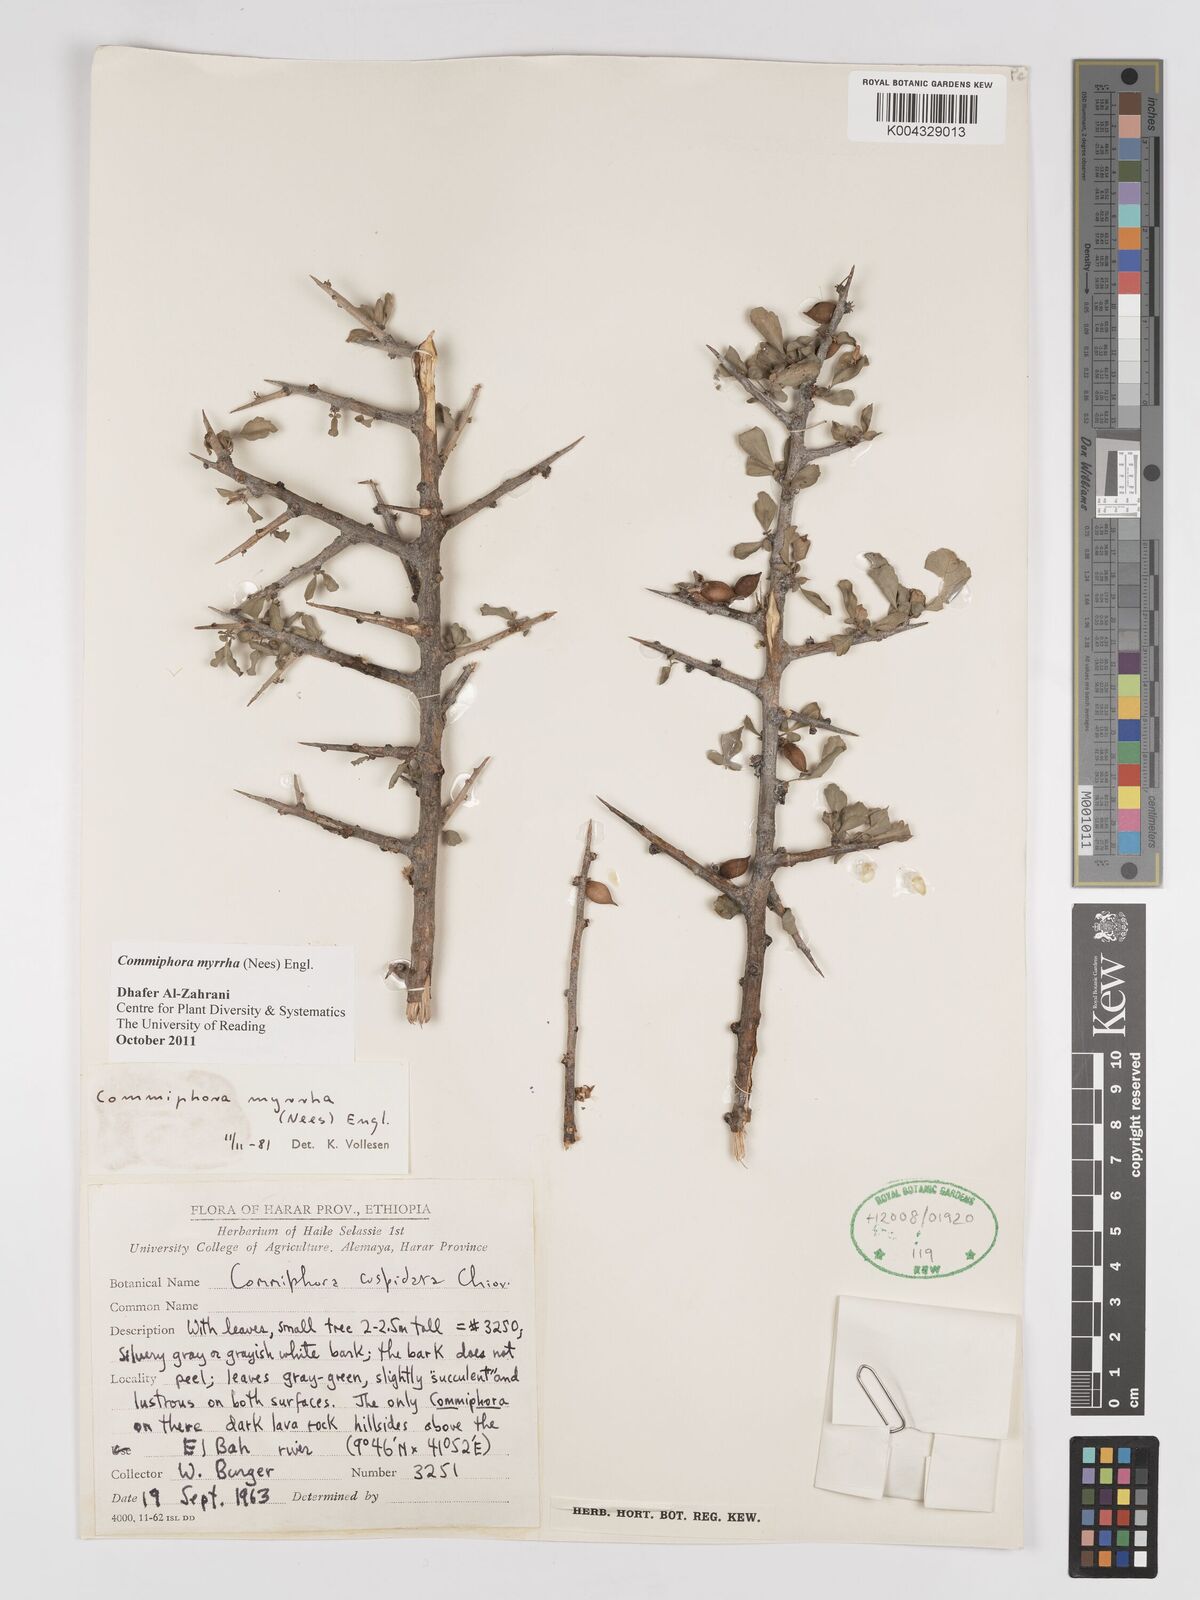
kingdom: Plantae
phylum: Tracheophyta
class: Magnoliopsida
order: Sapindales
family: Burseraceae
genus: Commiphora
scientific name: Commiphora myrrha
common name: African myrrh
